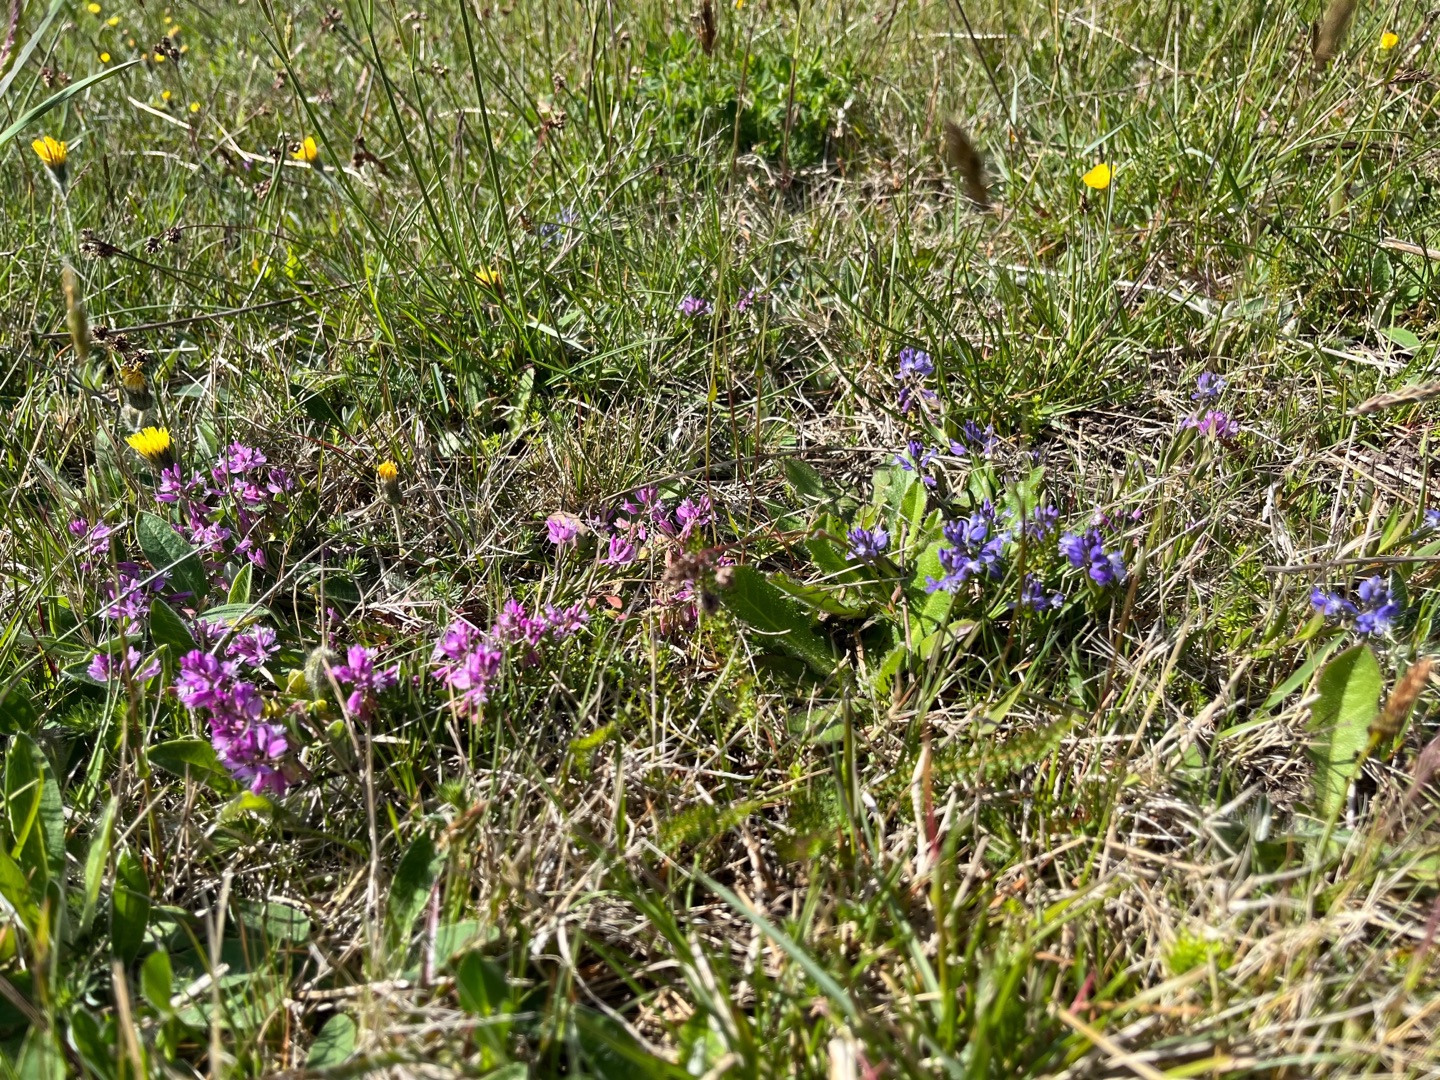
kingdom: Plantae
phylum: Tracheophyta
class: Magnoliopsida
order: Fabales
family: Polygalaceae
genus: Polygala
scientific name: Polygala vulgaris
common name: Almindelig mælkeurt
